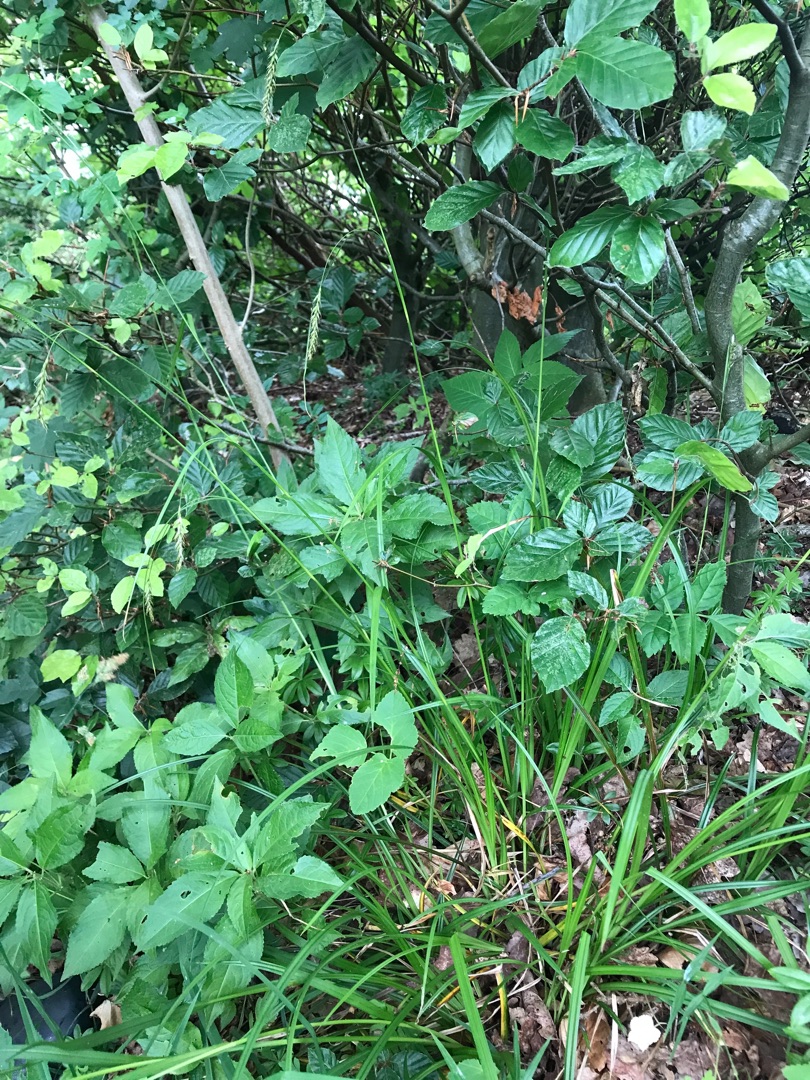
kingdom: Plantae
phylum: Tracheophyta
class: Liliopsida
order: Poales
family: Cyperaceae
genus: Carex
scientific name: Carex sylvatica
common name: Skov-star
